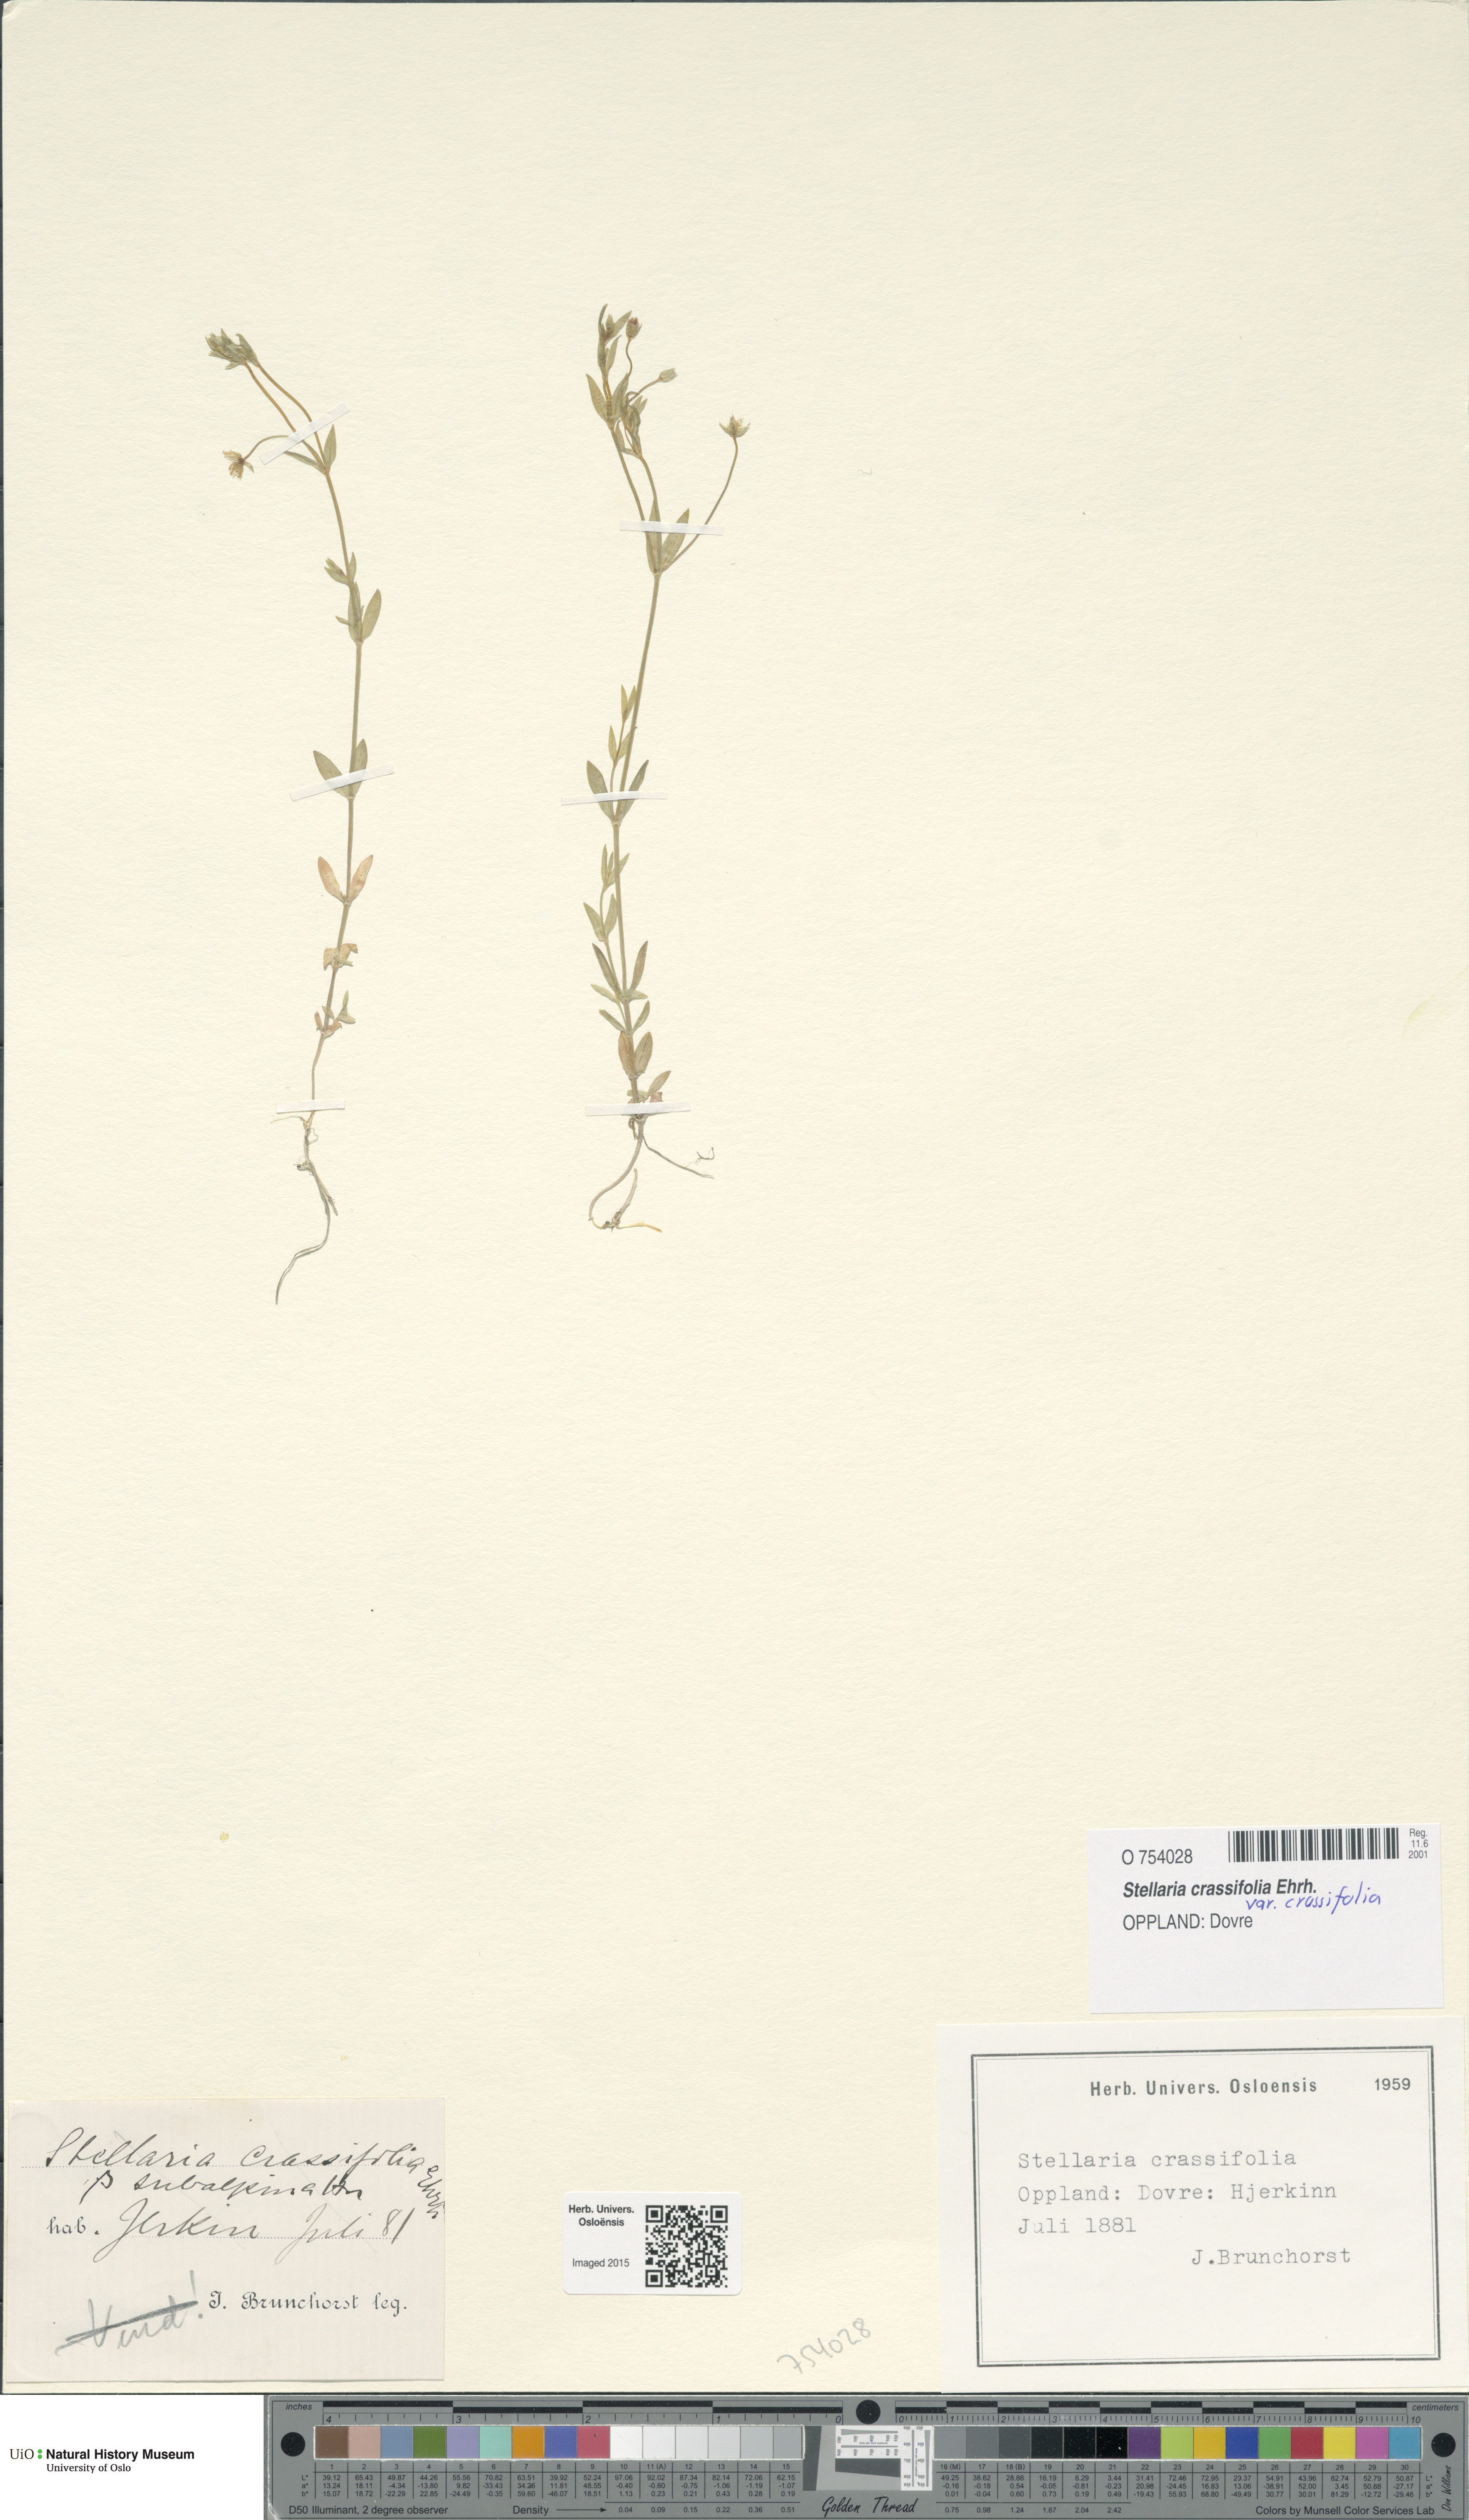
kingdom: Plantae
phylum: Tracheophyta
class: Magnoliopsida
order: Caryophyllales
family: Caryophyllaceae
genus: Stellaria
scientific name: Stellaria crassifolia
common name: Fleshy starwort
